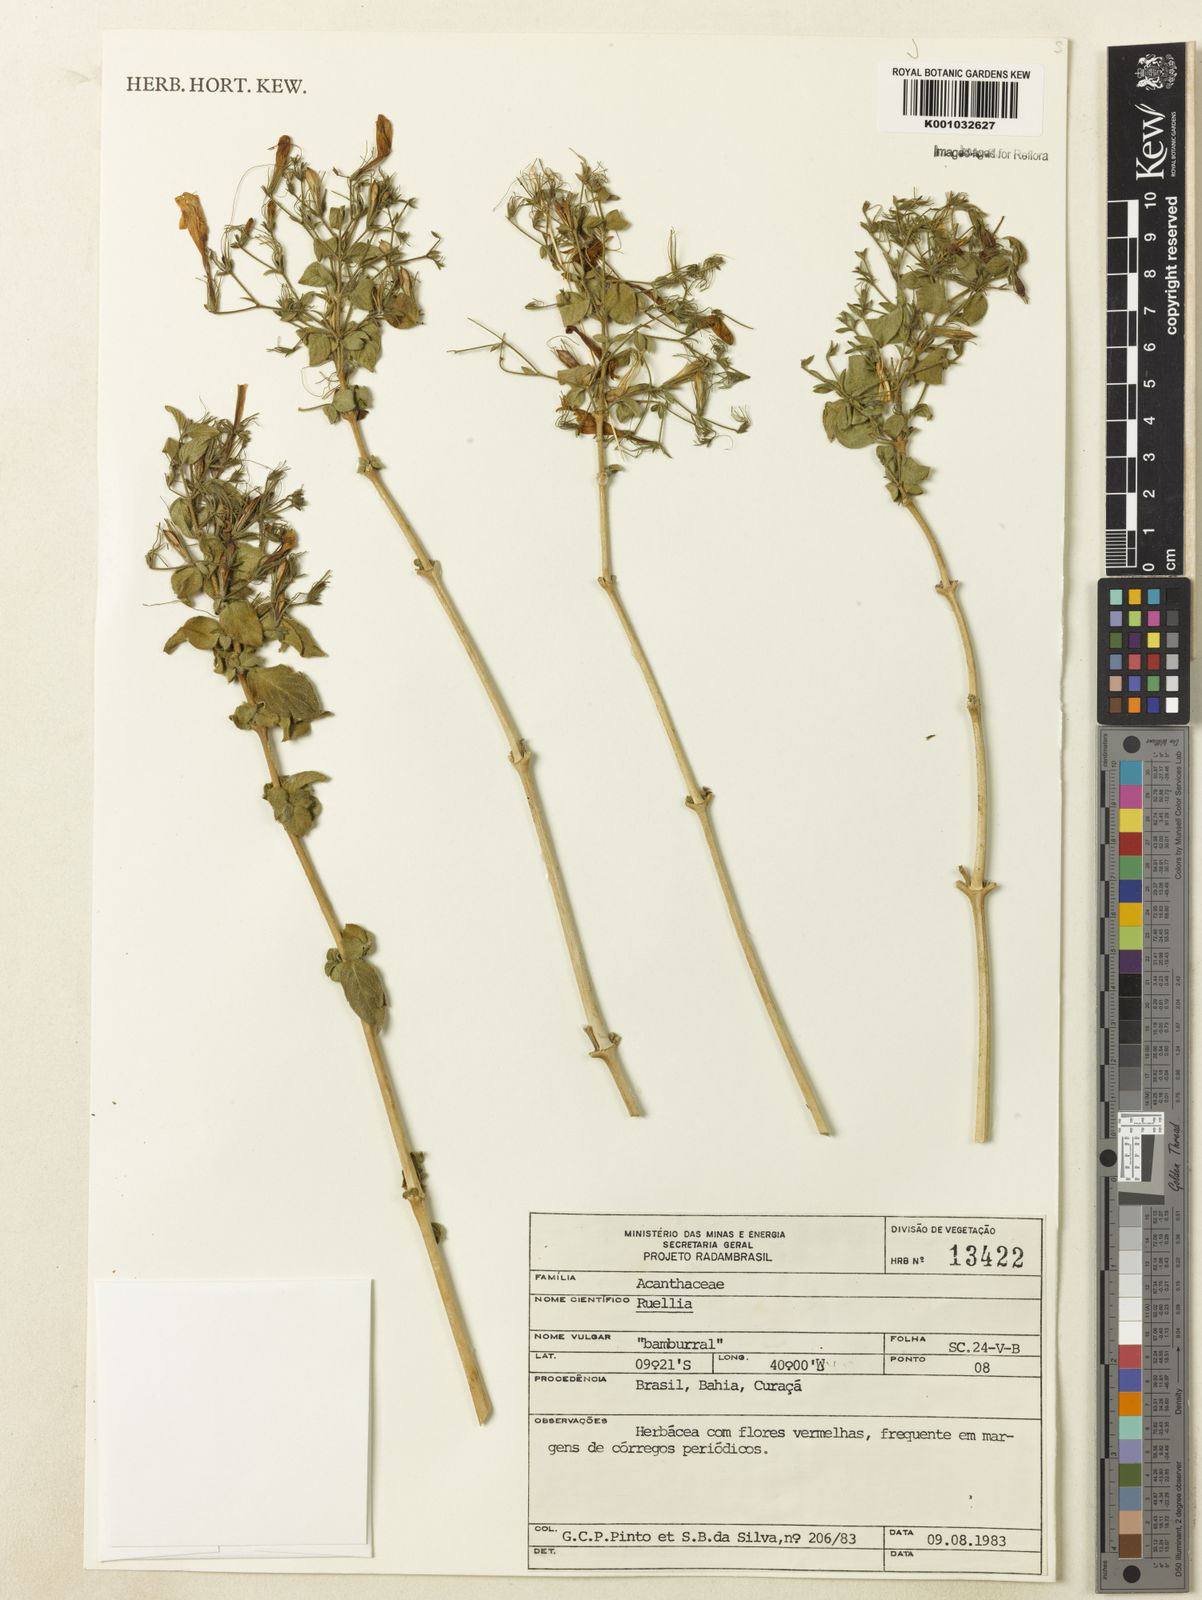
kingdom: Plantae
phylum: Tracheophyta
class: Magnoliopsida
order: Lamiales
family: Acanthaceae
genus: Ruellia
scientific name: Ruellia paniculata
